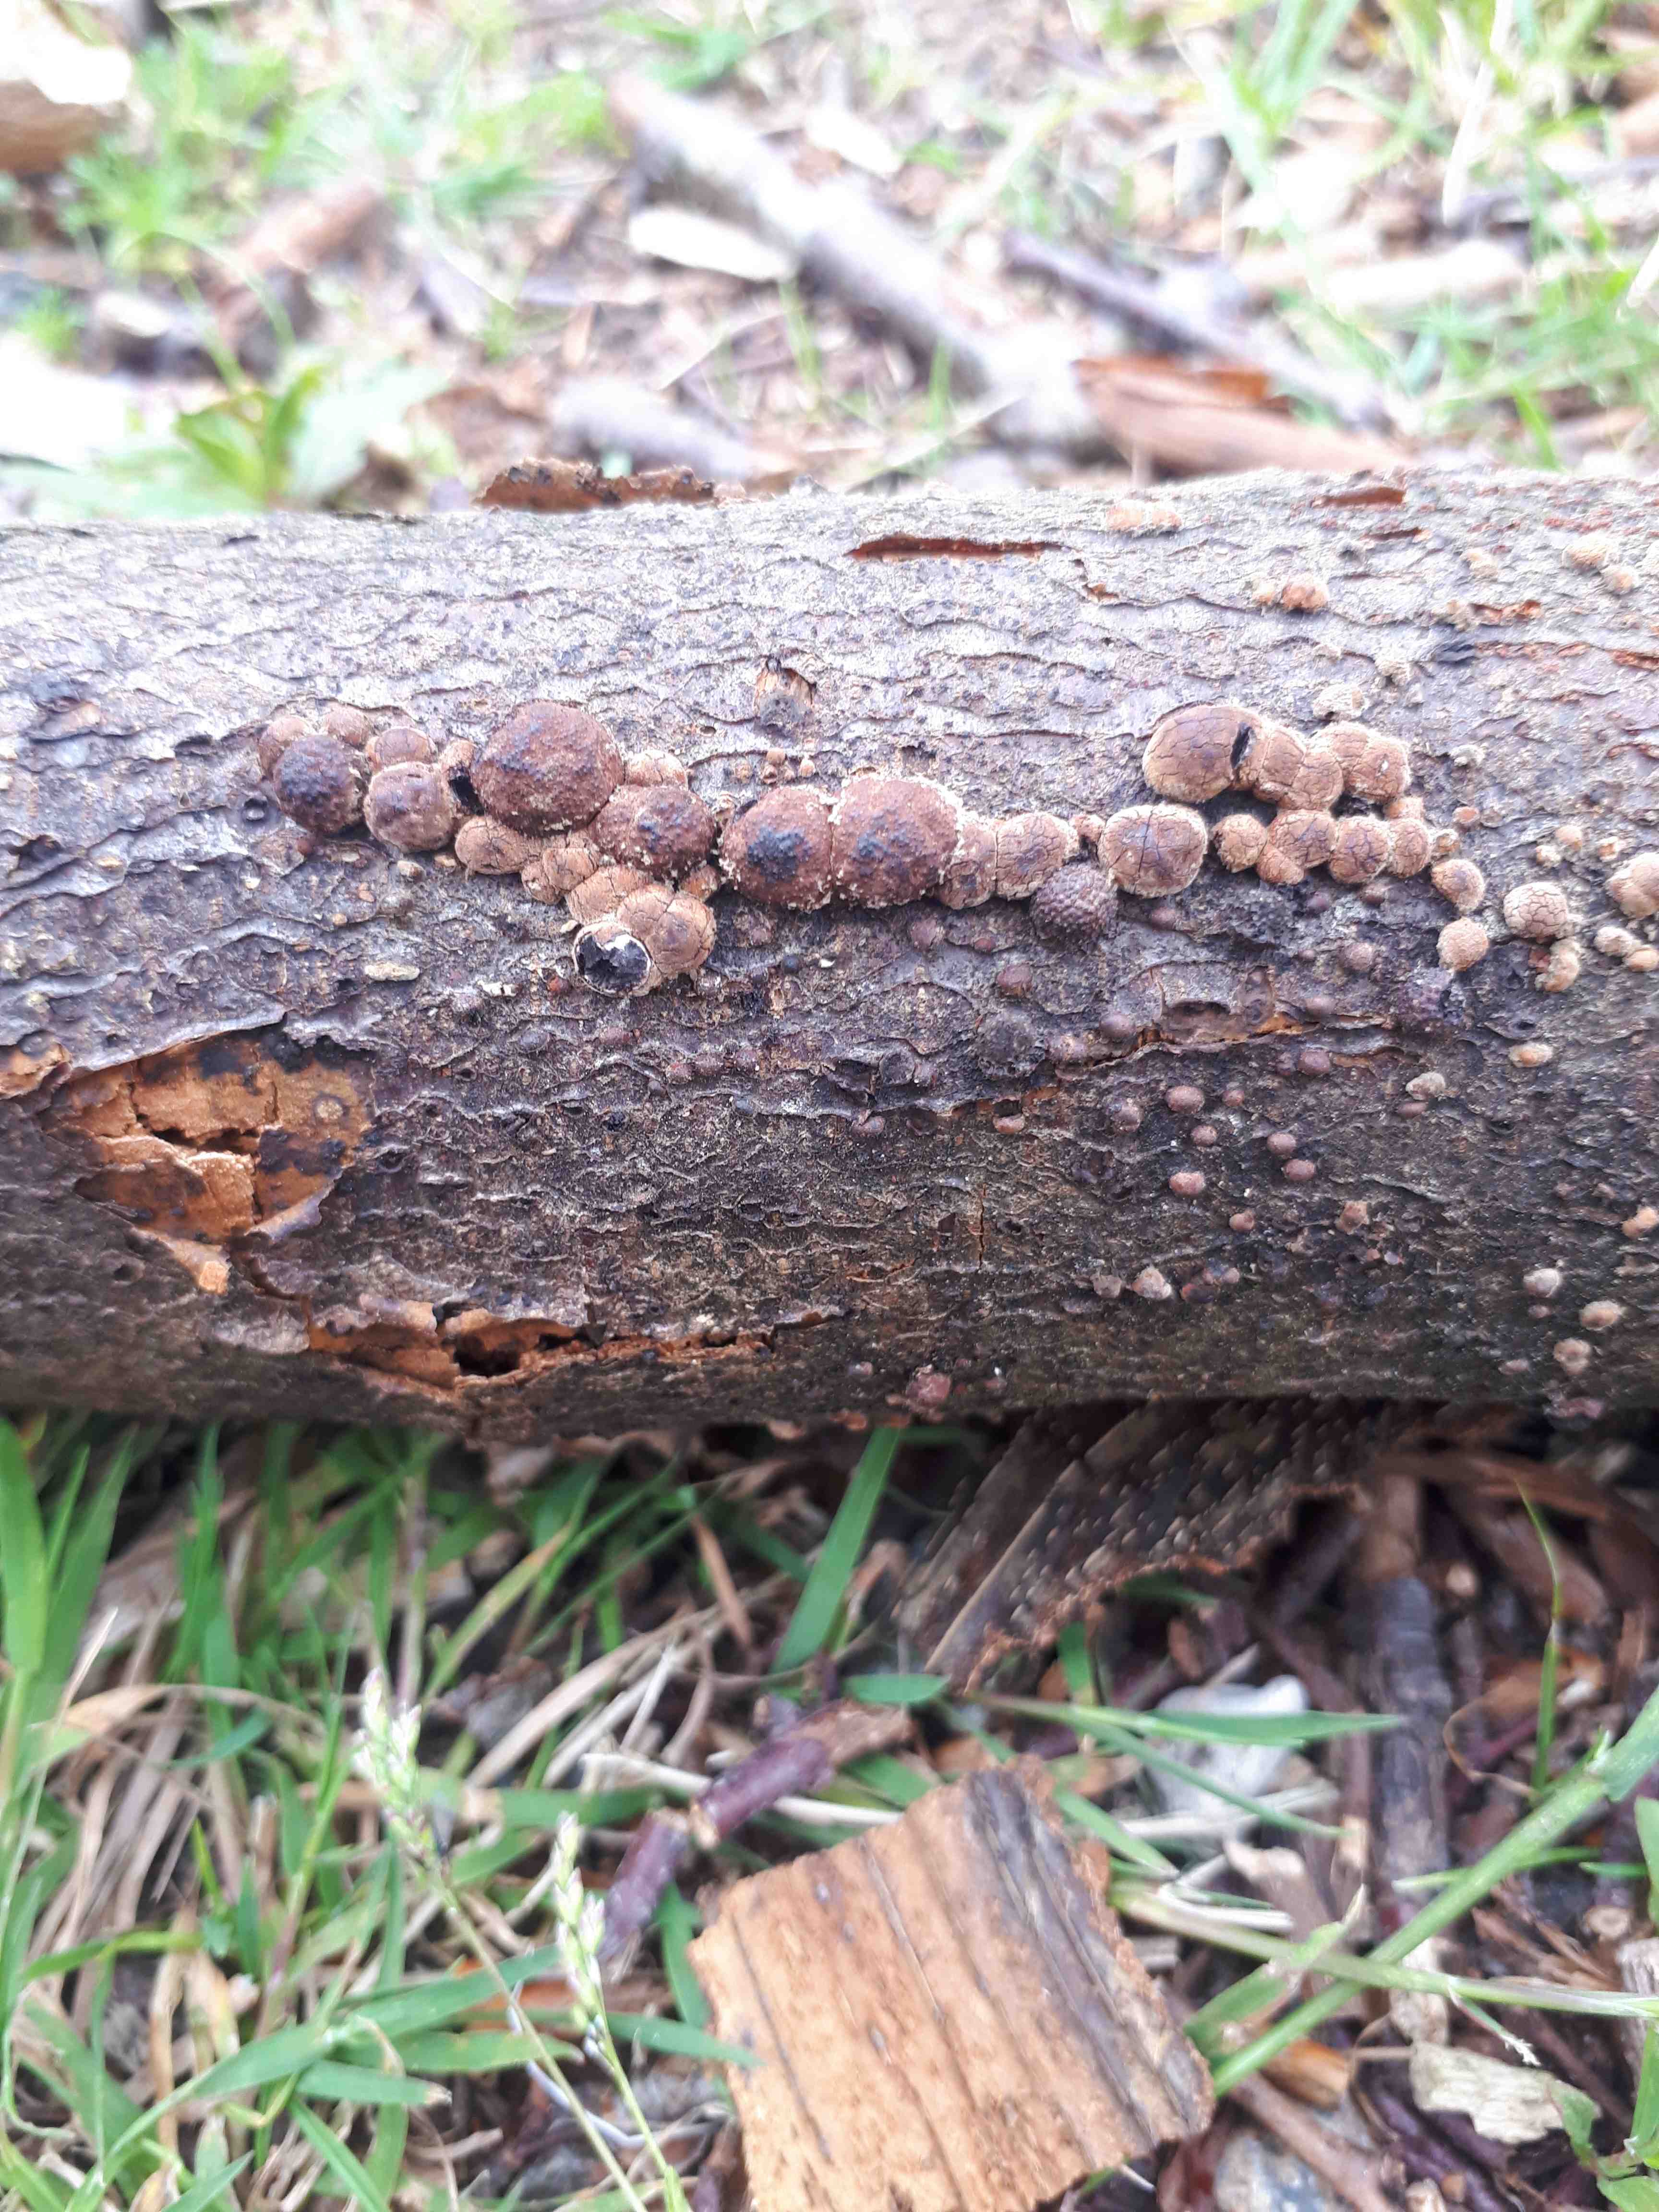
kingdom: Fungi
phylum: Ascomycota
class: Sordariomycetes
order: Xylariales
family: Hypoxylaceae
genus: Hypoxylon
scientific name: Hypoxylon fragiforme
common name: kuljordbær
